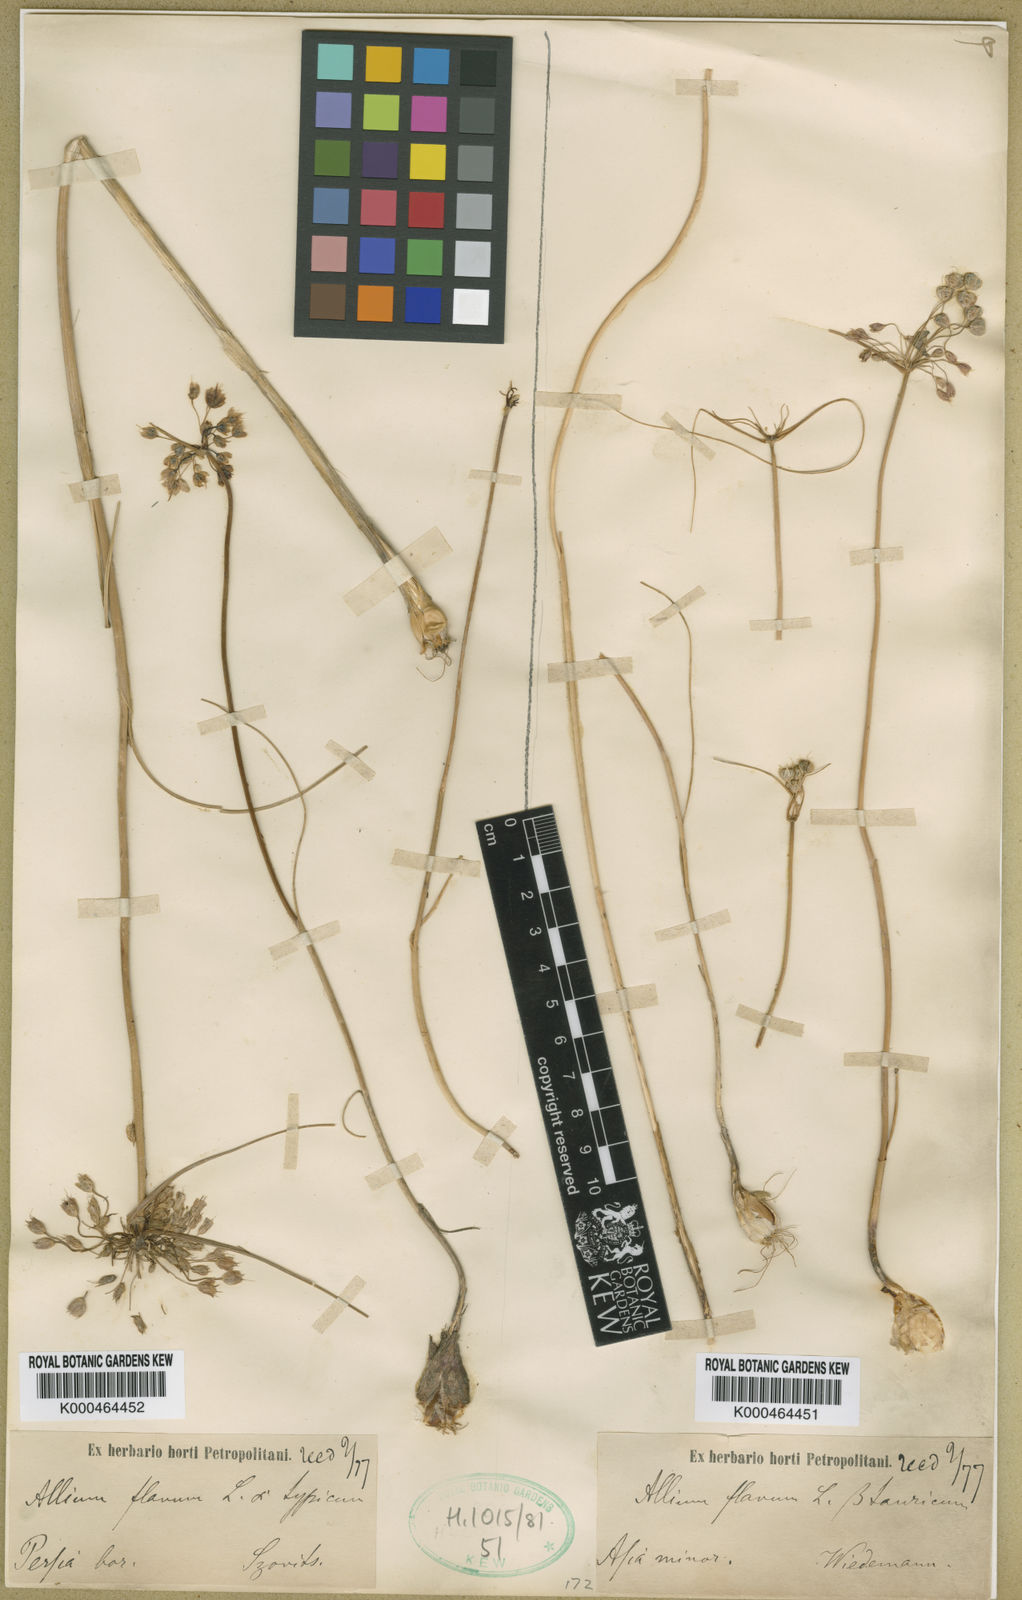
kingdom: Plantae
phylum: Tracheophyta
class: Liliopsida
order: Asparagales
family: Amaryllidaceae
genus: Allium
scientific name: Allium flavum
